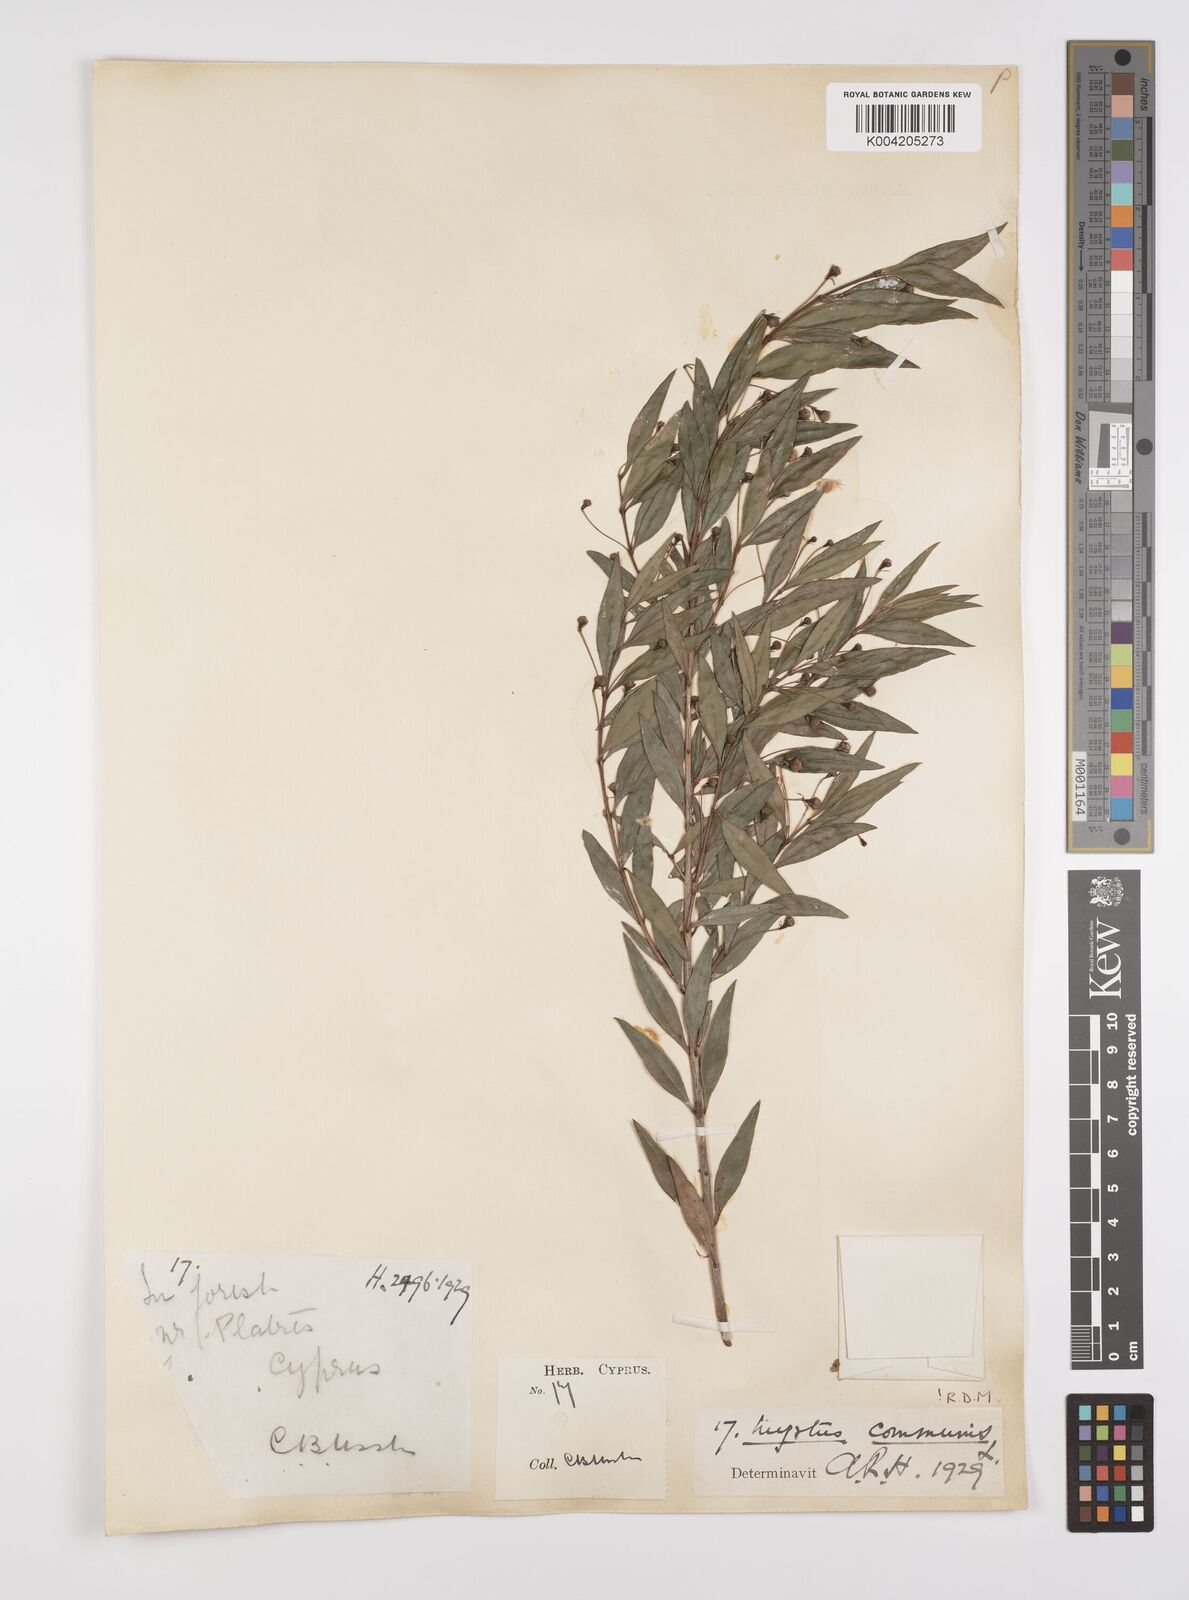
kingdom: Plantae
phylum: Tracheophyta
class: Magnoliopsida
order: Myrtales
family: Myrtaceae
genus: Myrtus
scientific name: Myrtus communis
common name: Myrtle
